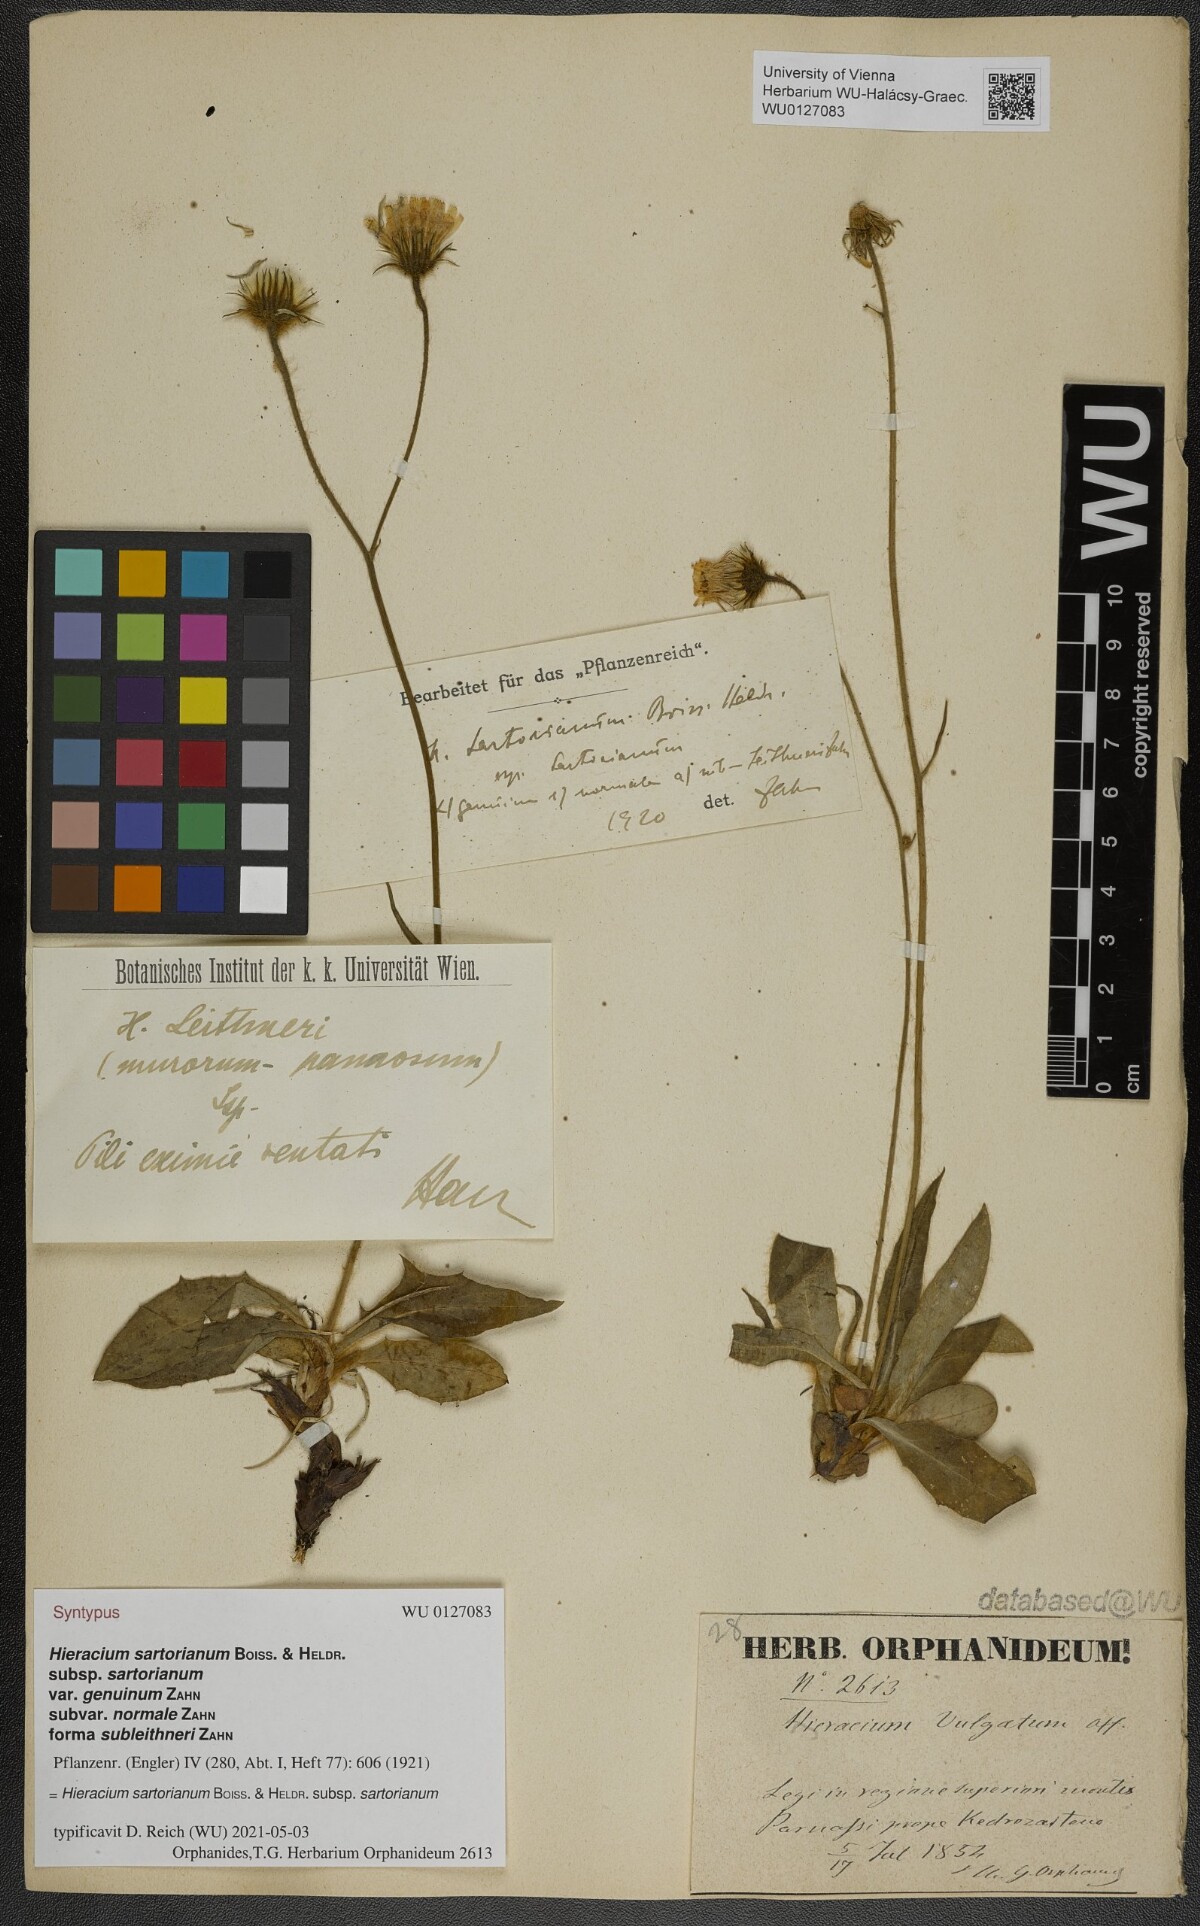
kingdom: Plantae
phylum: Tracheophyta
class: Magnoliopsida
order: Asterales
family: Asteraceae
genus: Hieracium
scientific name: Hieracium sartorianum
